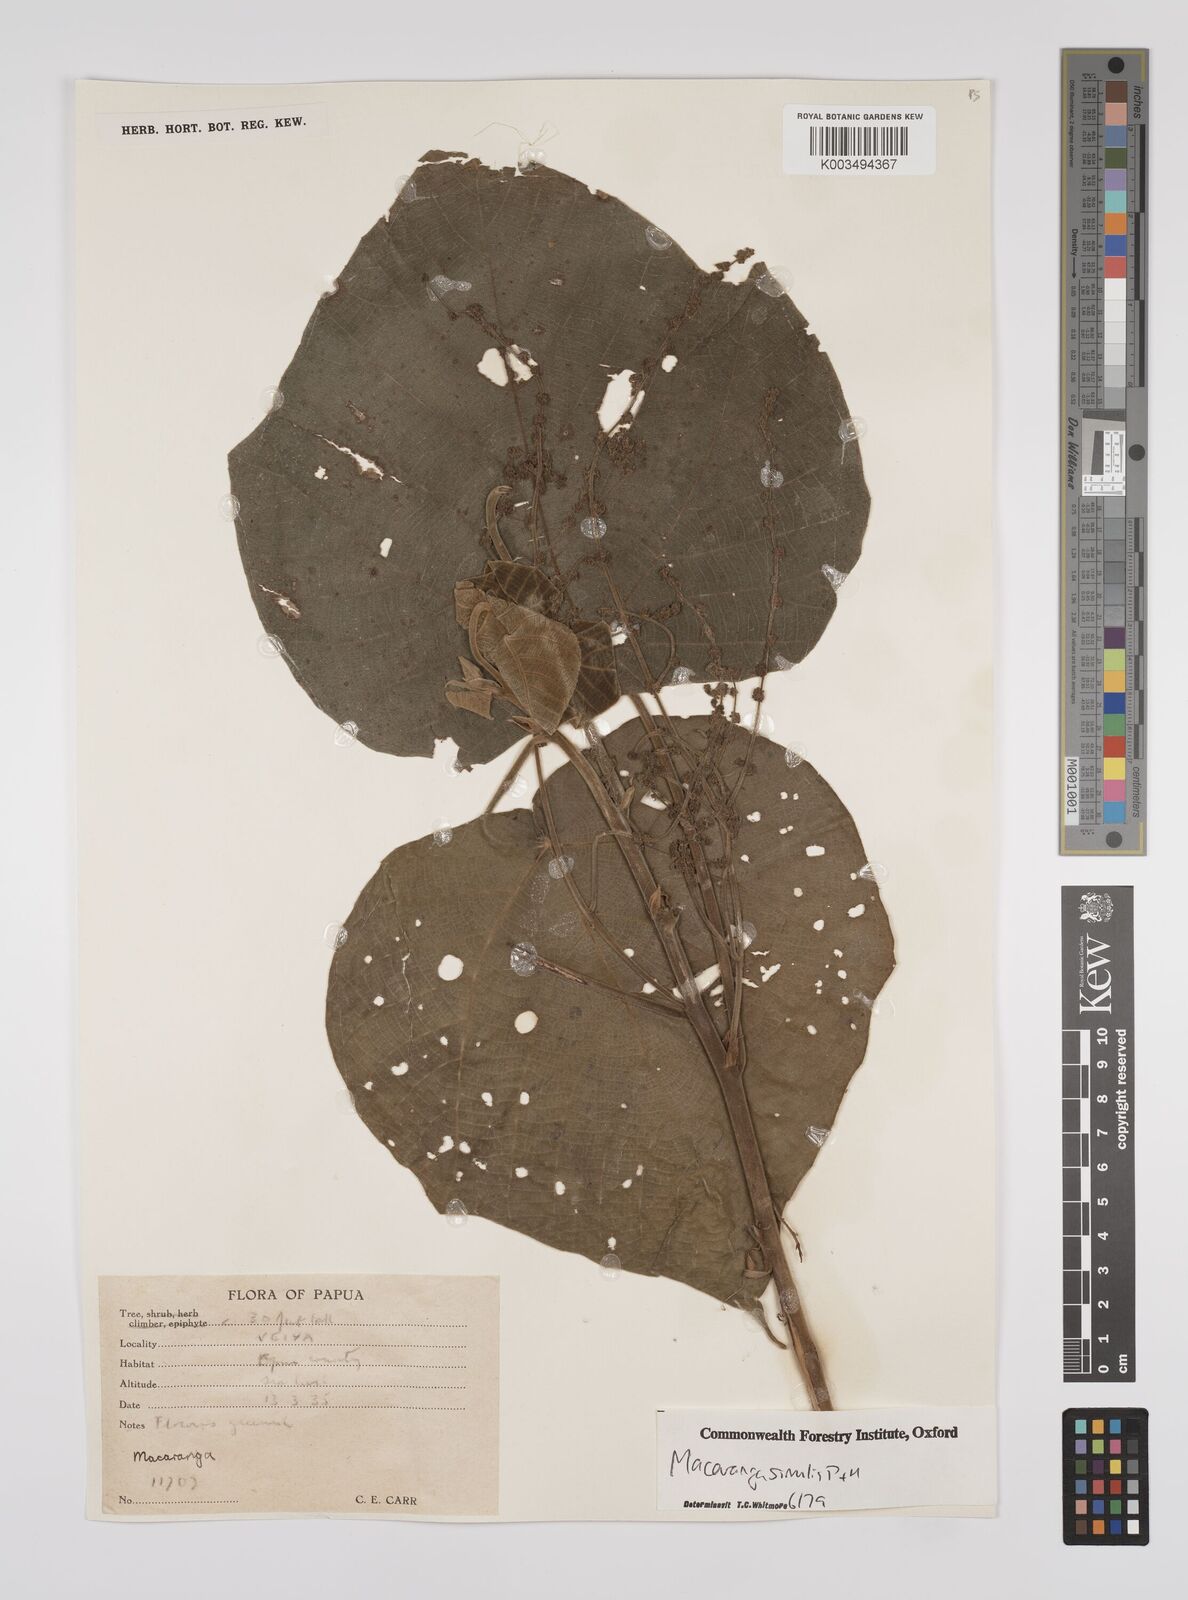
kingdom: Plantae
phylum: Tracheophyta
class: Magnoliopsida
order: Malpighiales
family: Euphorbiaceae
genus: Macaranga
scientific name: Macaranga similis
